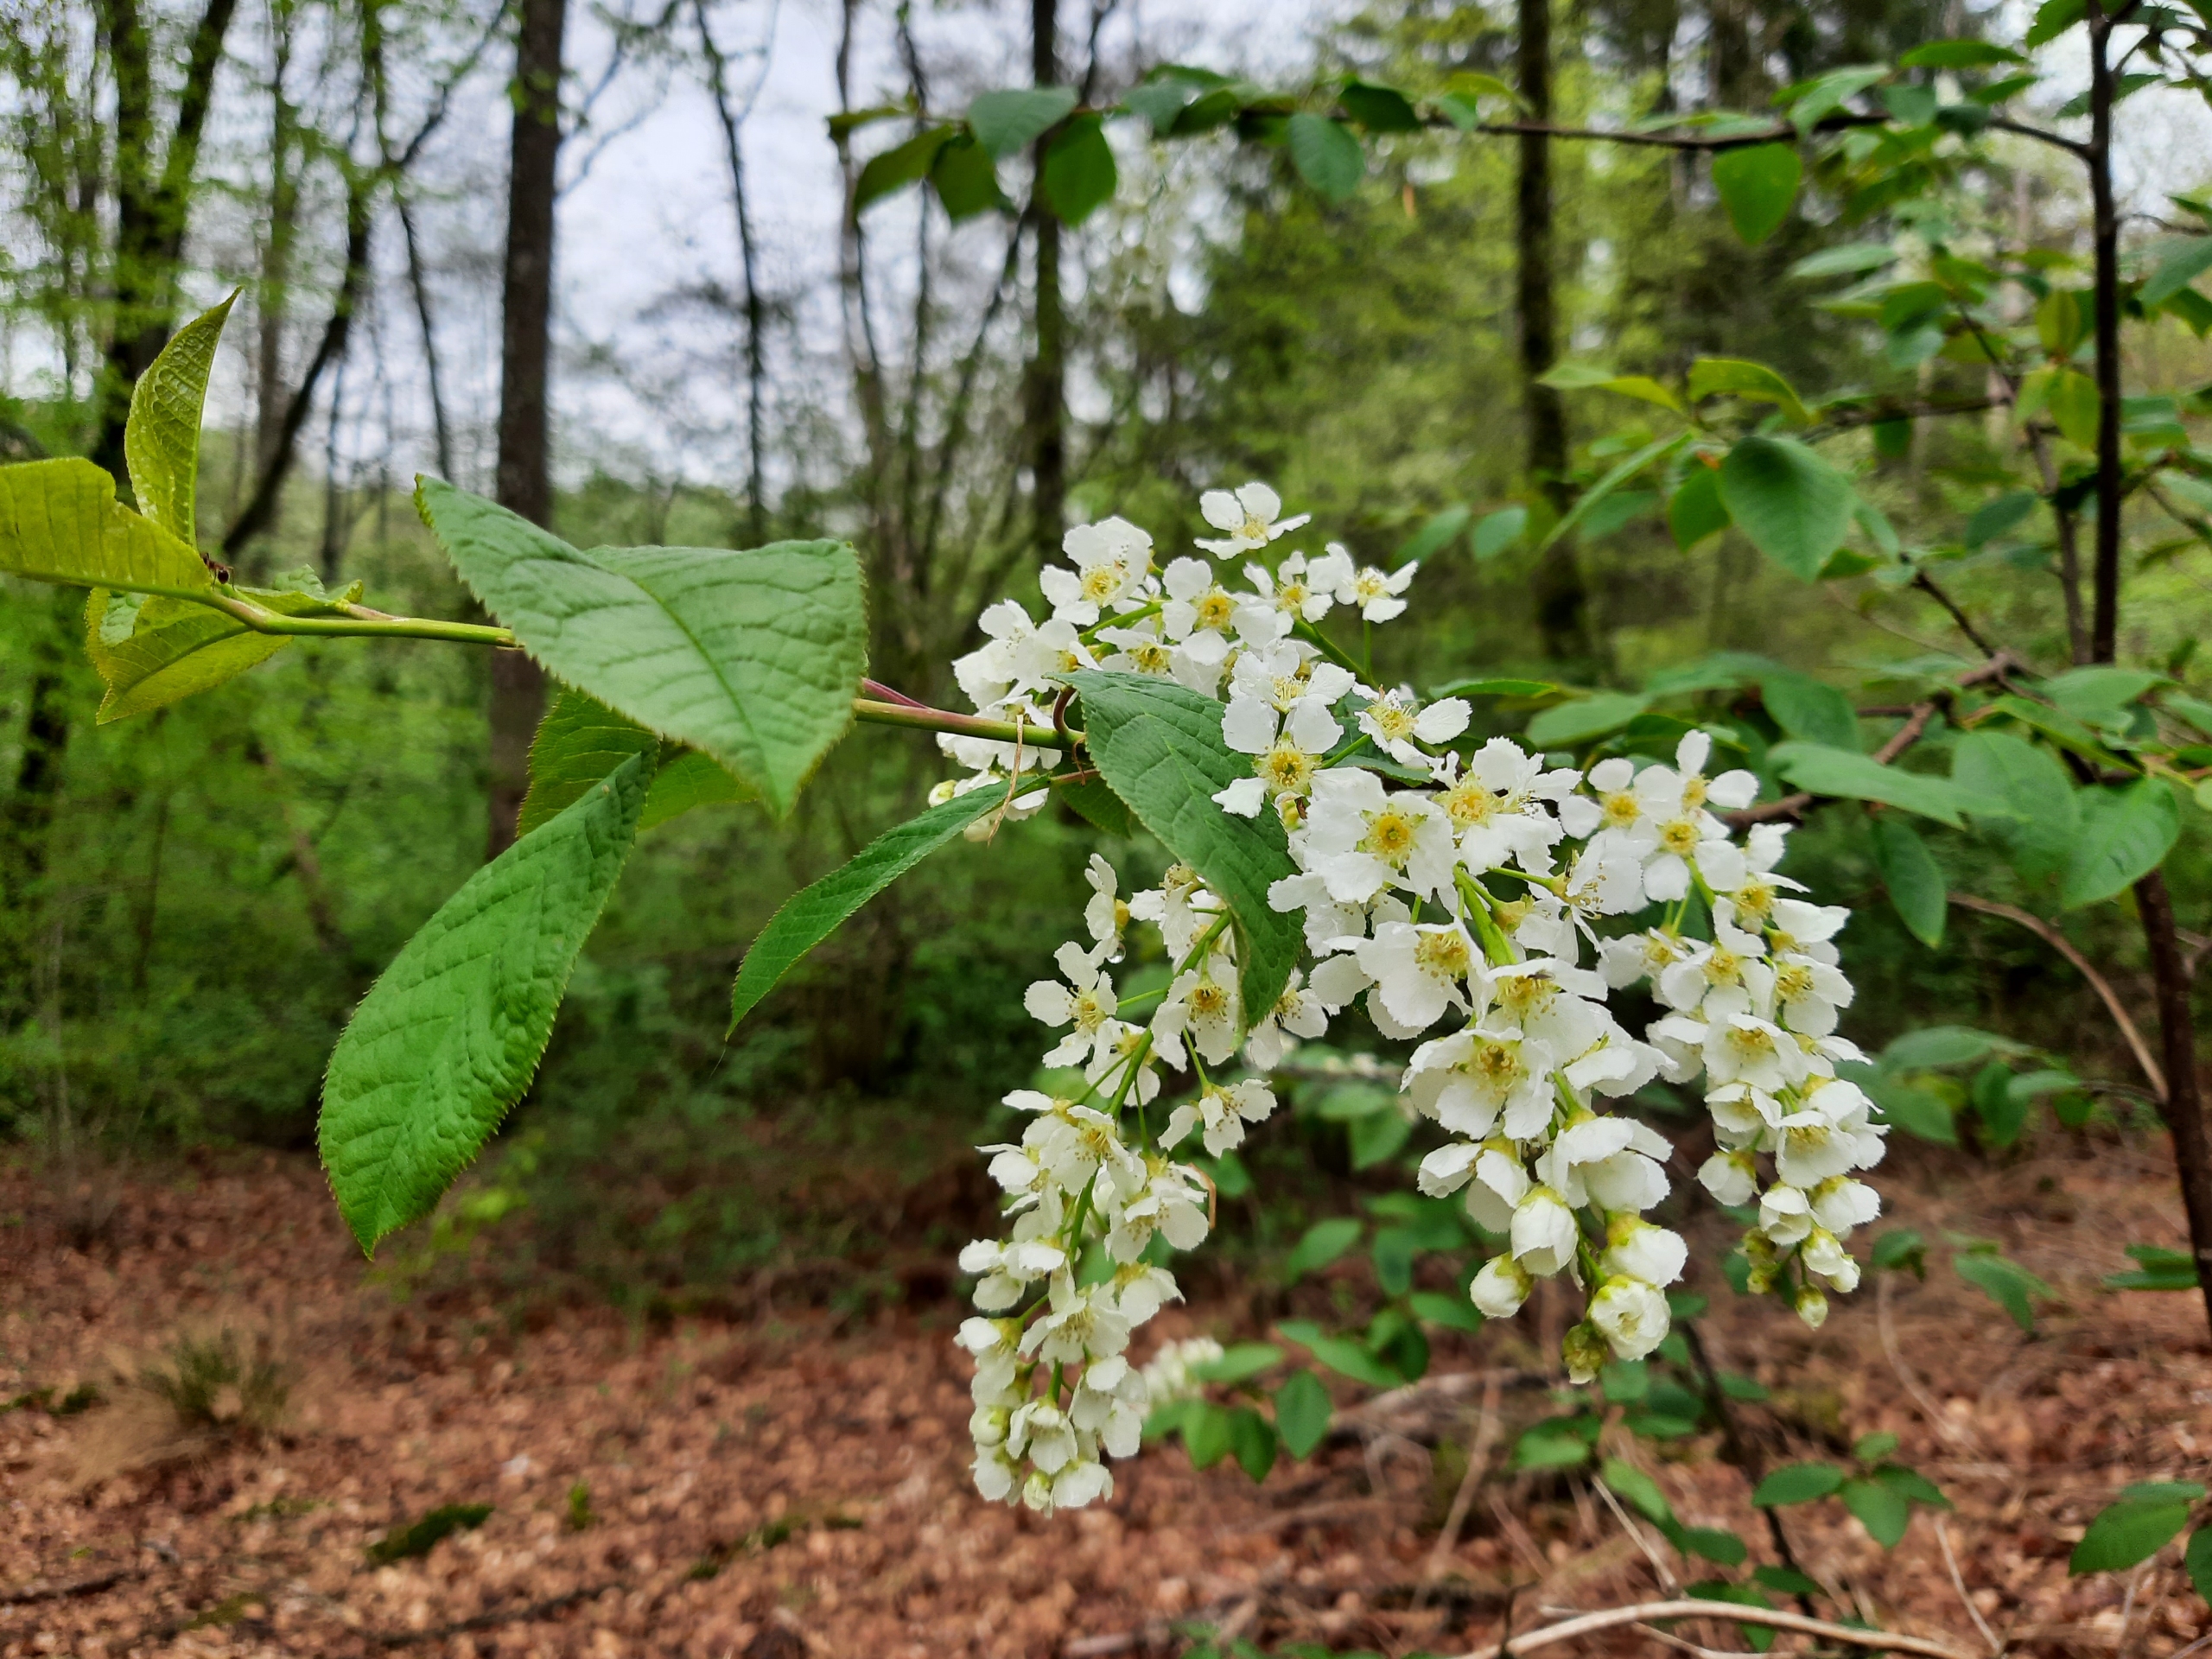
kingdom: Plantae
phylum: Tracheophyta
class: Magnoliopsida
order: Rosales
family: Rosaceae
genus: Prunus
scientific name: Prunus padus
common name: Almindelig hæg
